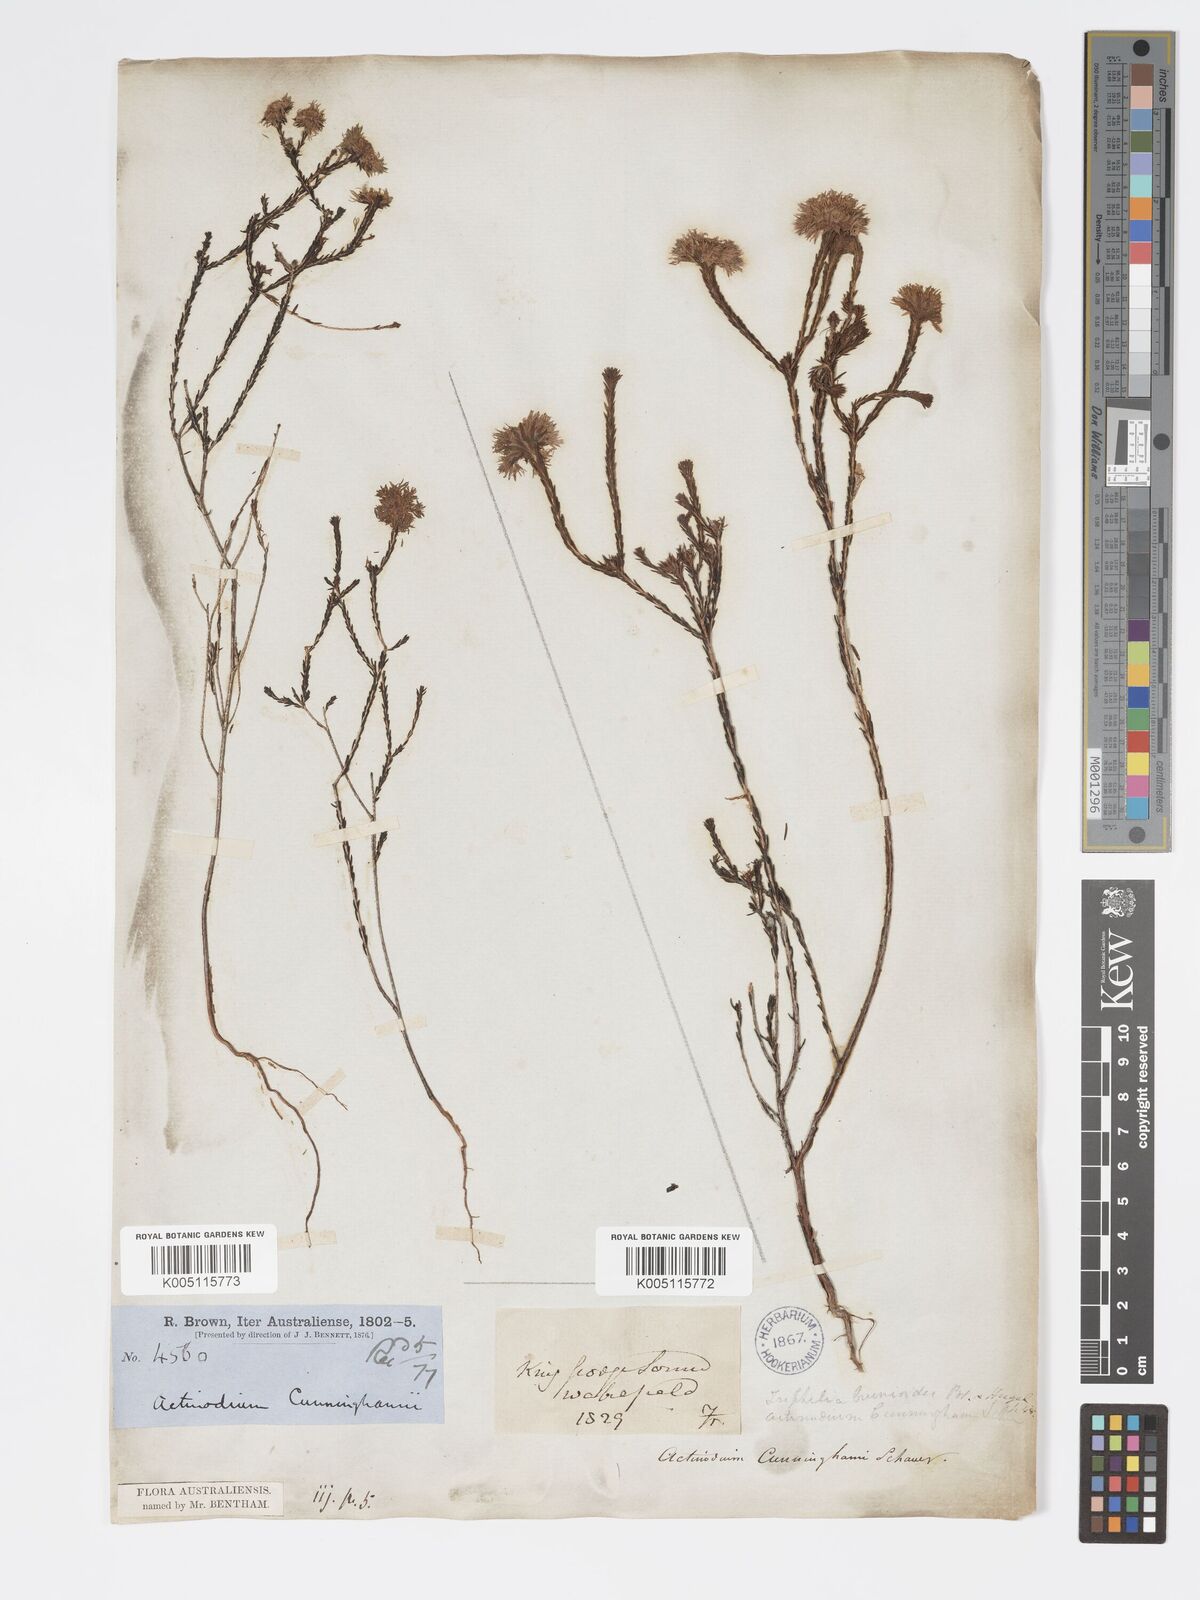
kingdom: Plantae
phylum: Tracheophyta
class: Magnoliopsida
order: Myrtales
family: Myrtaceae
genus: Actinodium
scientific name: Actinodium cunninghamii
